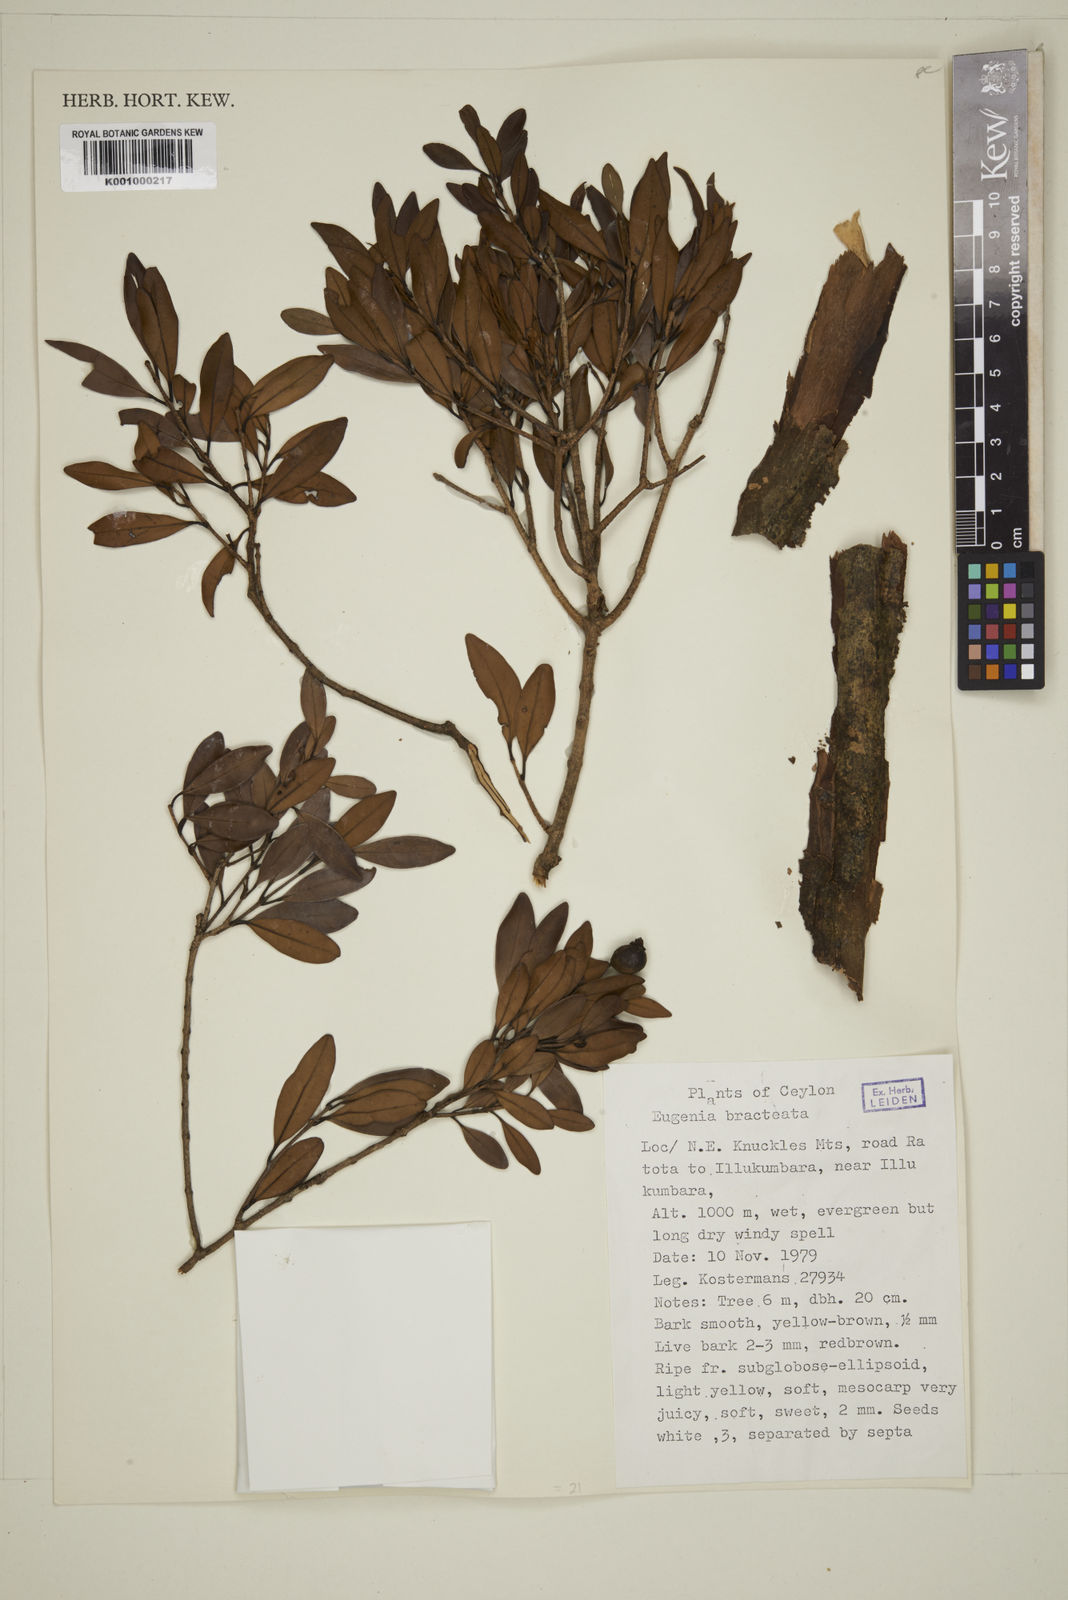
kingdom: Plantae
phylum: Tracheophyta
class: Magnoliopsida
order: Myrtales
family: Myrtaceae
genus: Eugenia
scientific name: Eugenia pseudopsidium
